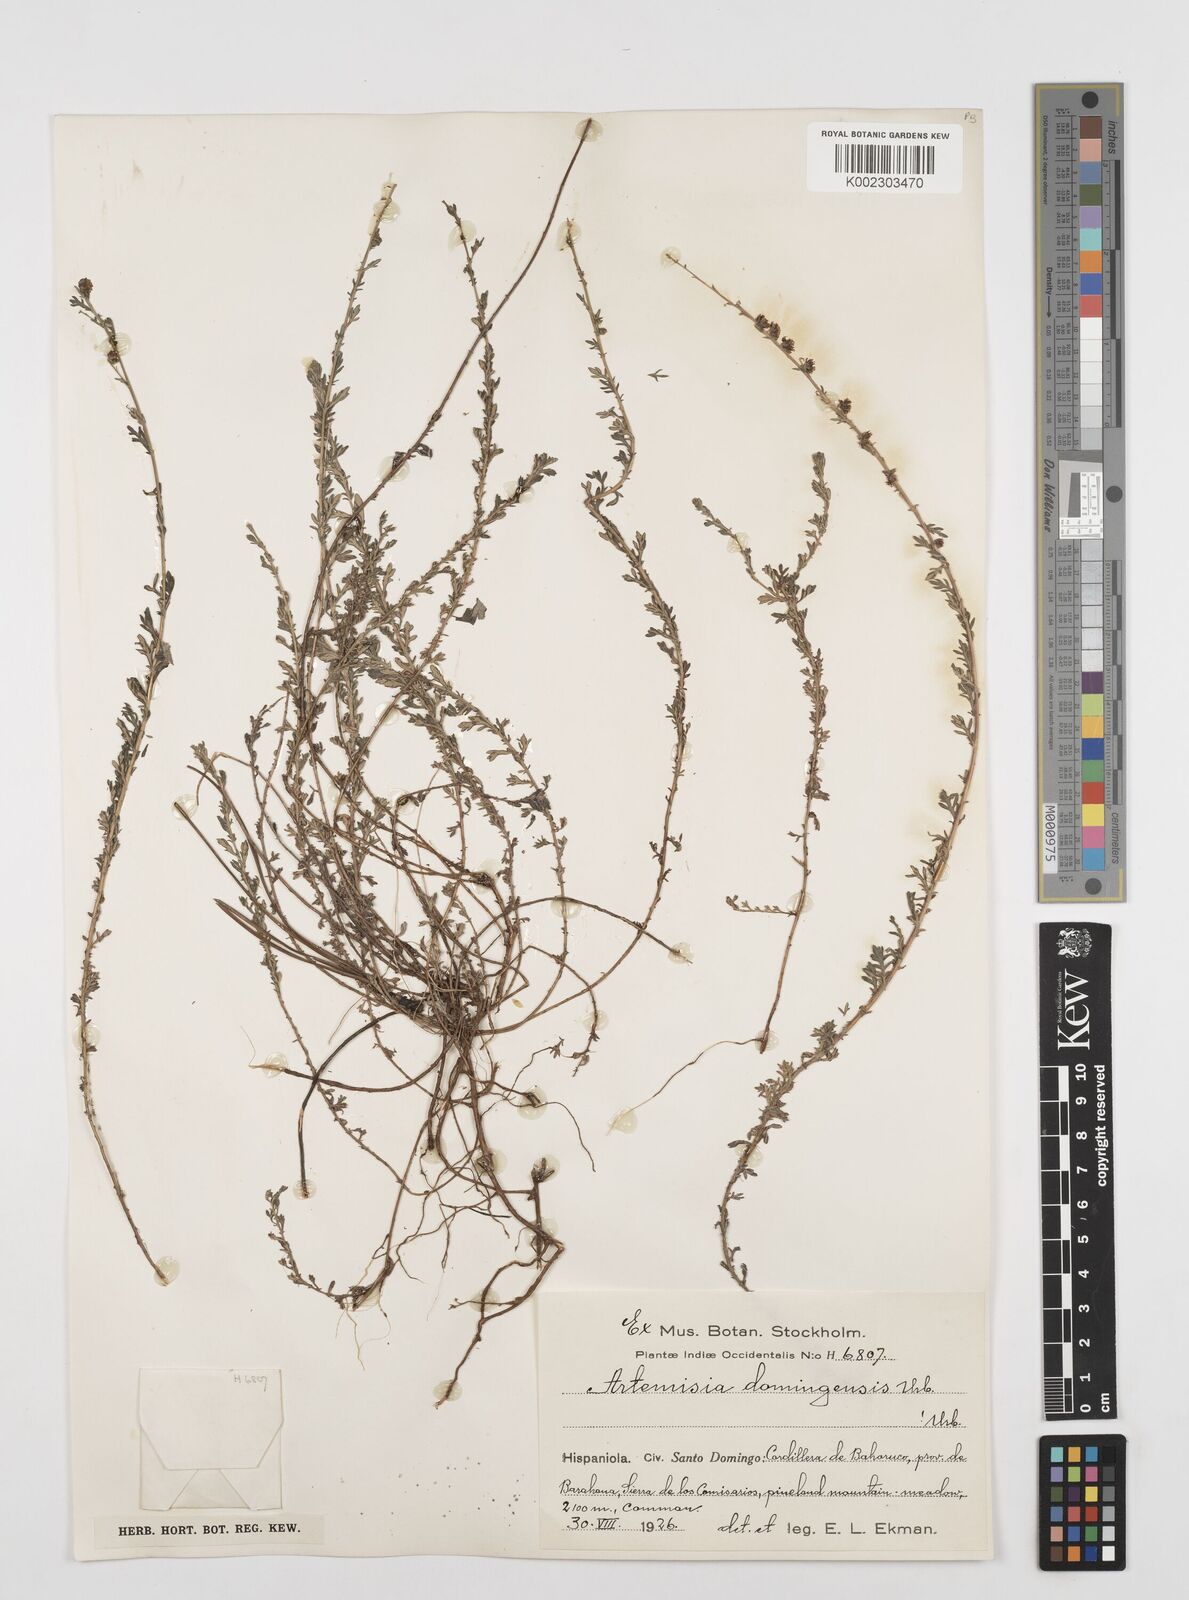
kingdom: Plantae
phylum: Tracheophyta
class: Magnoliopsida
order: Asterales
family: Asteraceae
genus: Artemisia
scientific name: Artemisia domingensis
